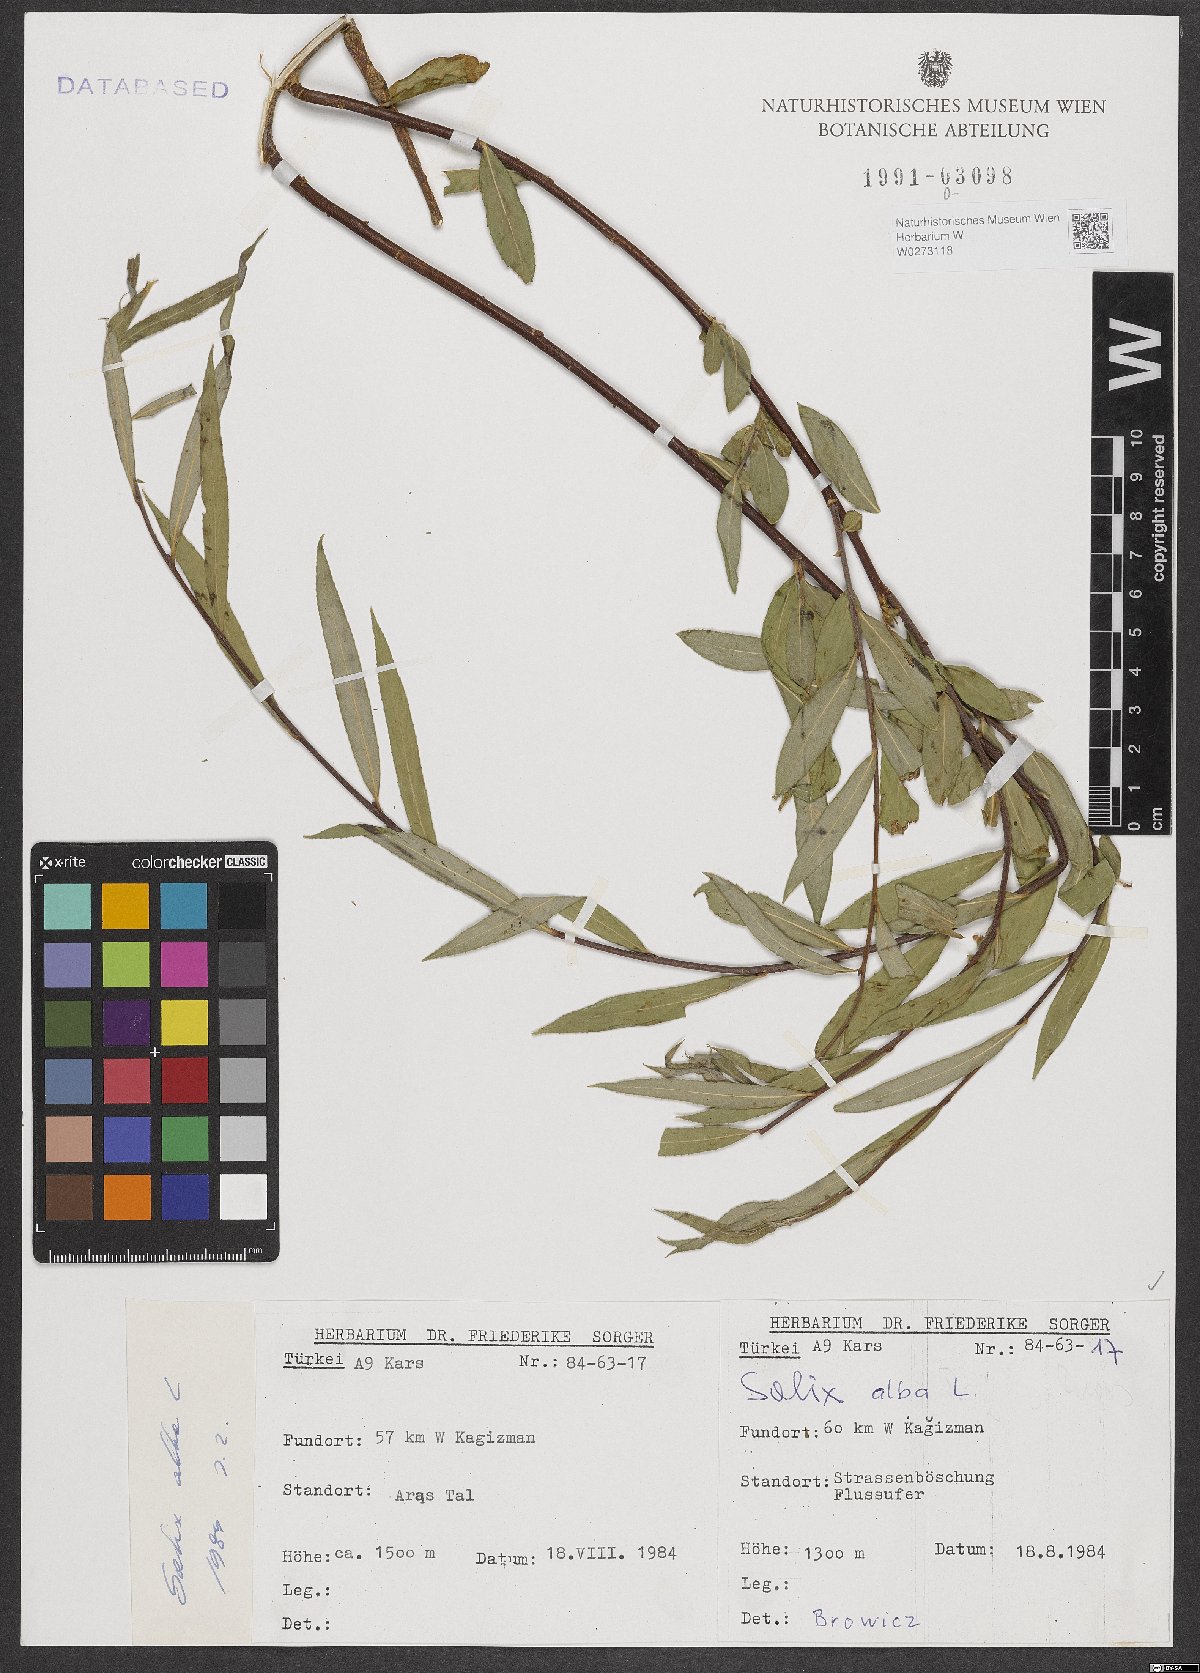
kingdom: Plantae
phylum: Tracheophyta
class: Magnoliopsida
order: Malpighiales
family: Salicaceae
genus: Salix
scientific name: Salix alba
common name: White willow
